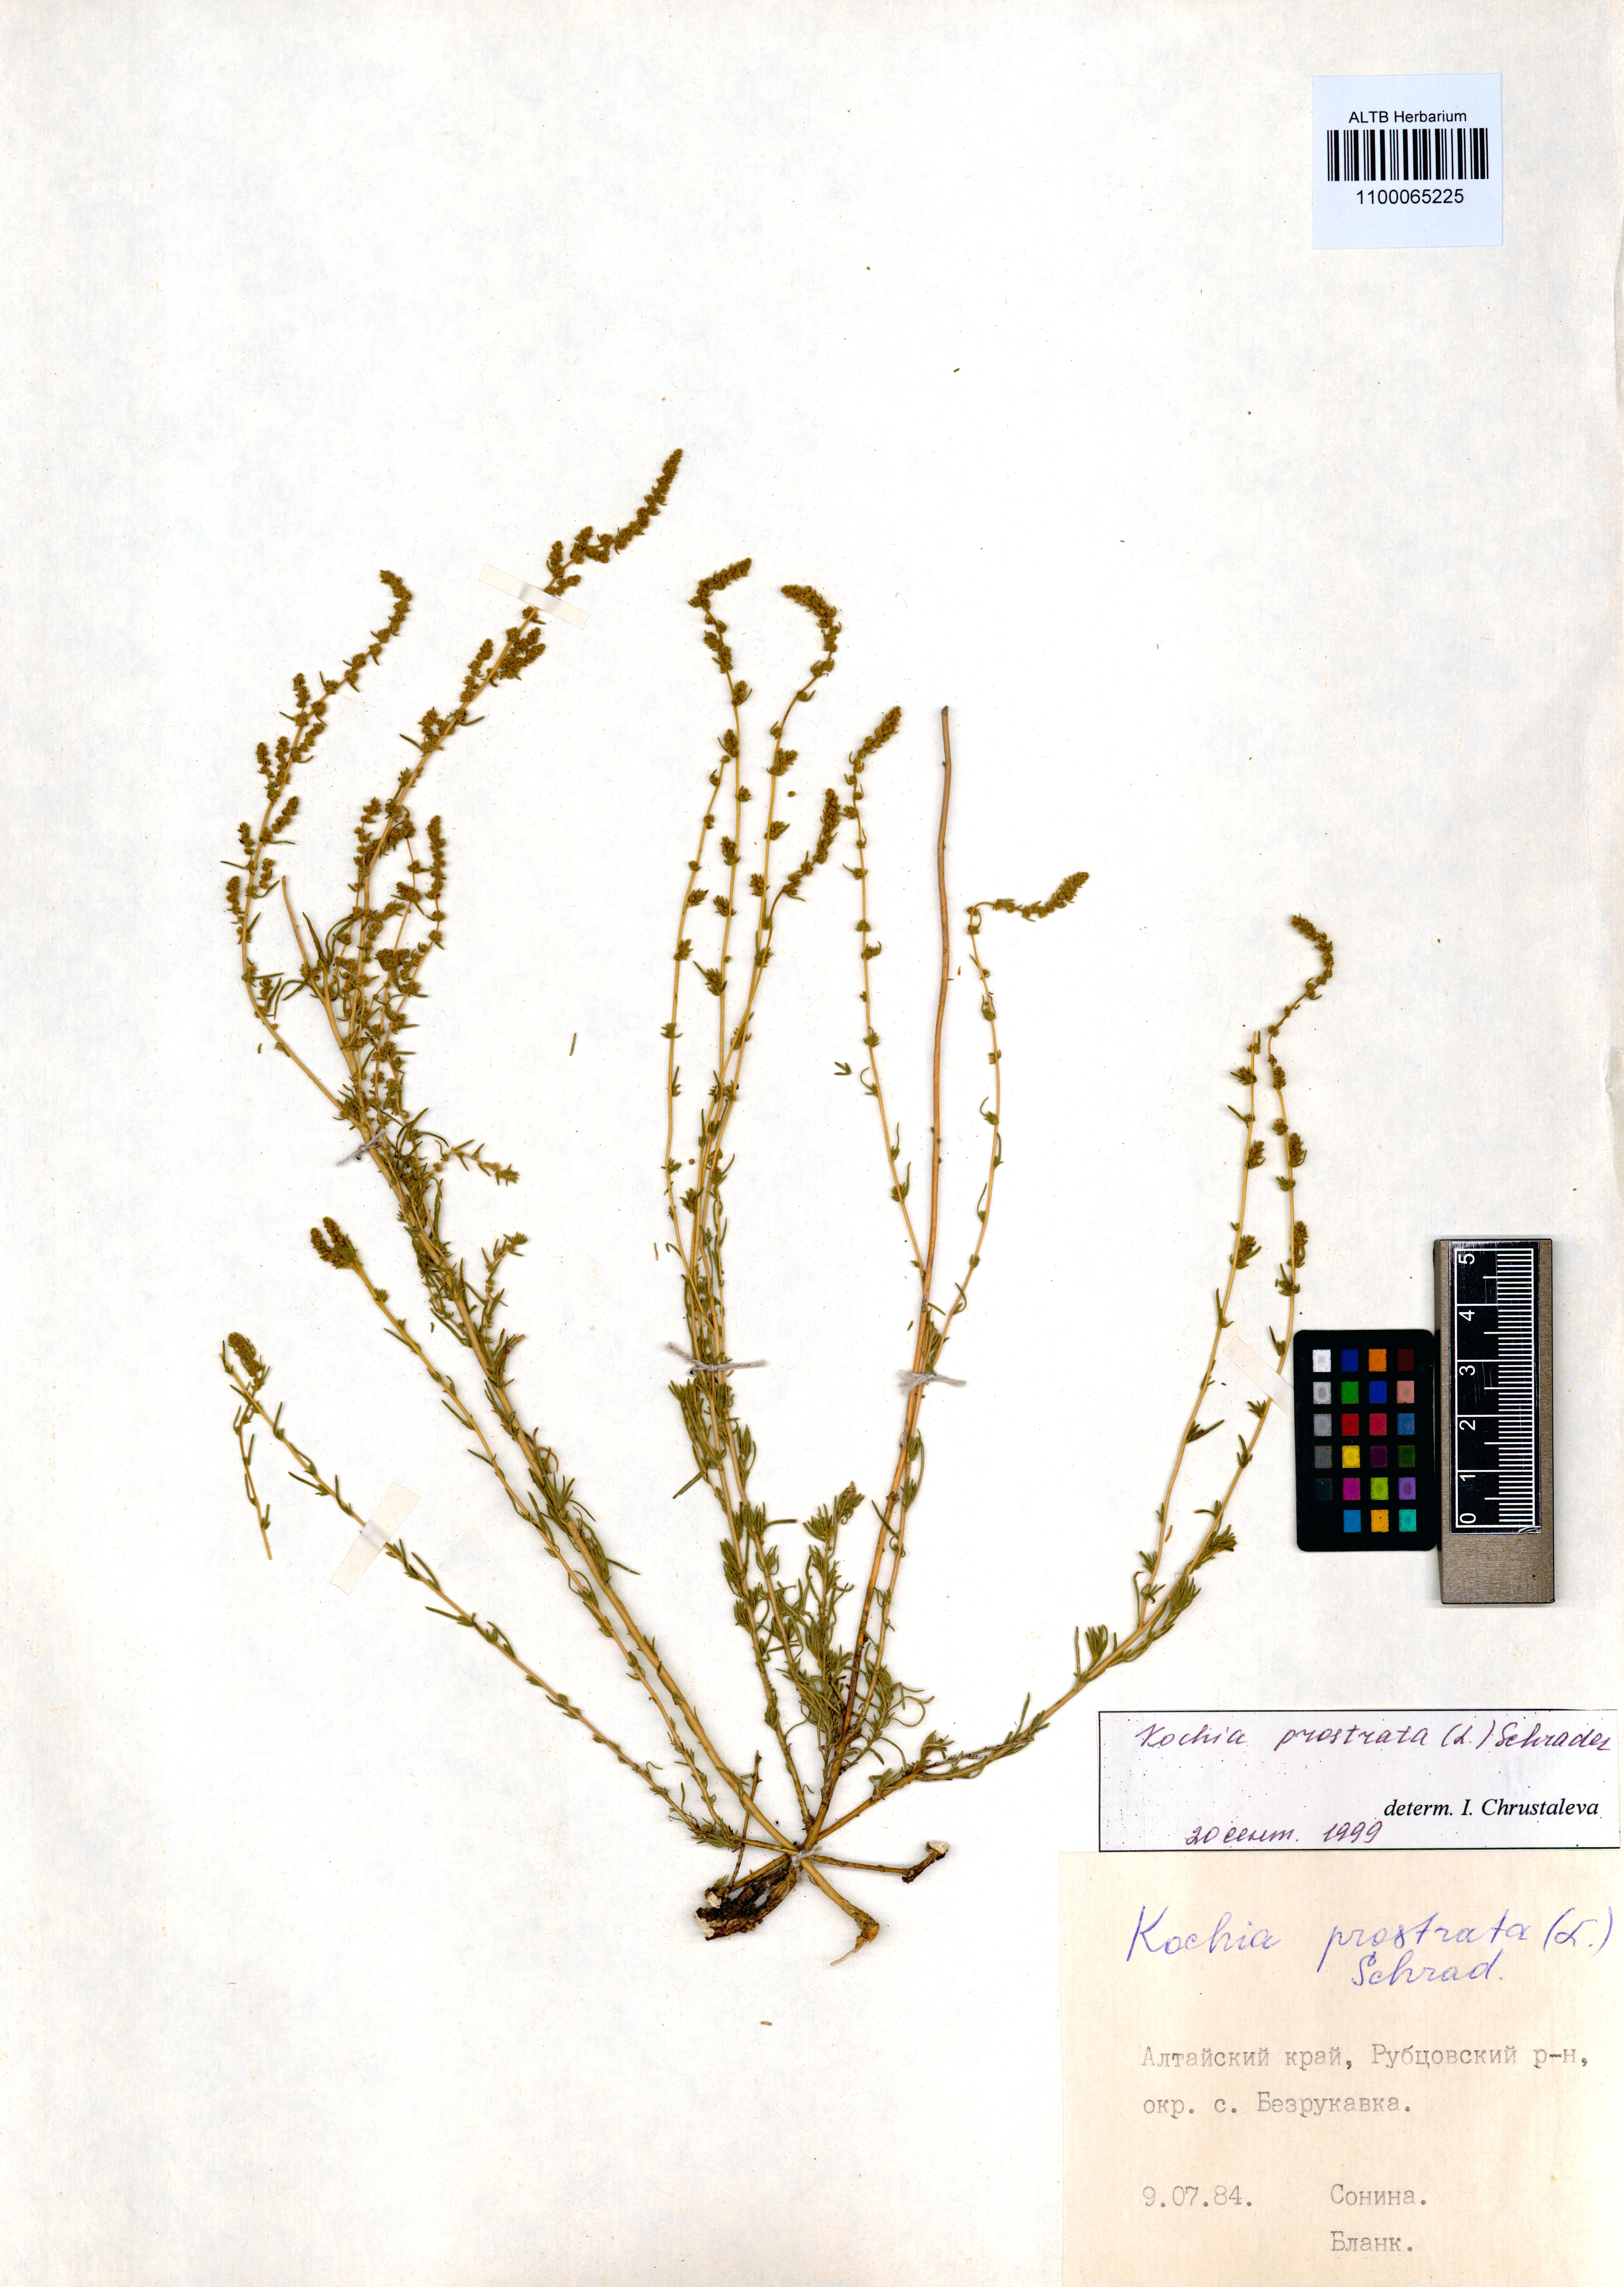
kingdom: Plantae
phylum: Tracheophyta
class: Magnoliopsida
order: Caryophyllales
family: Amaranthaceae
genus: Bassia
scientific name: Bassia prostrata
